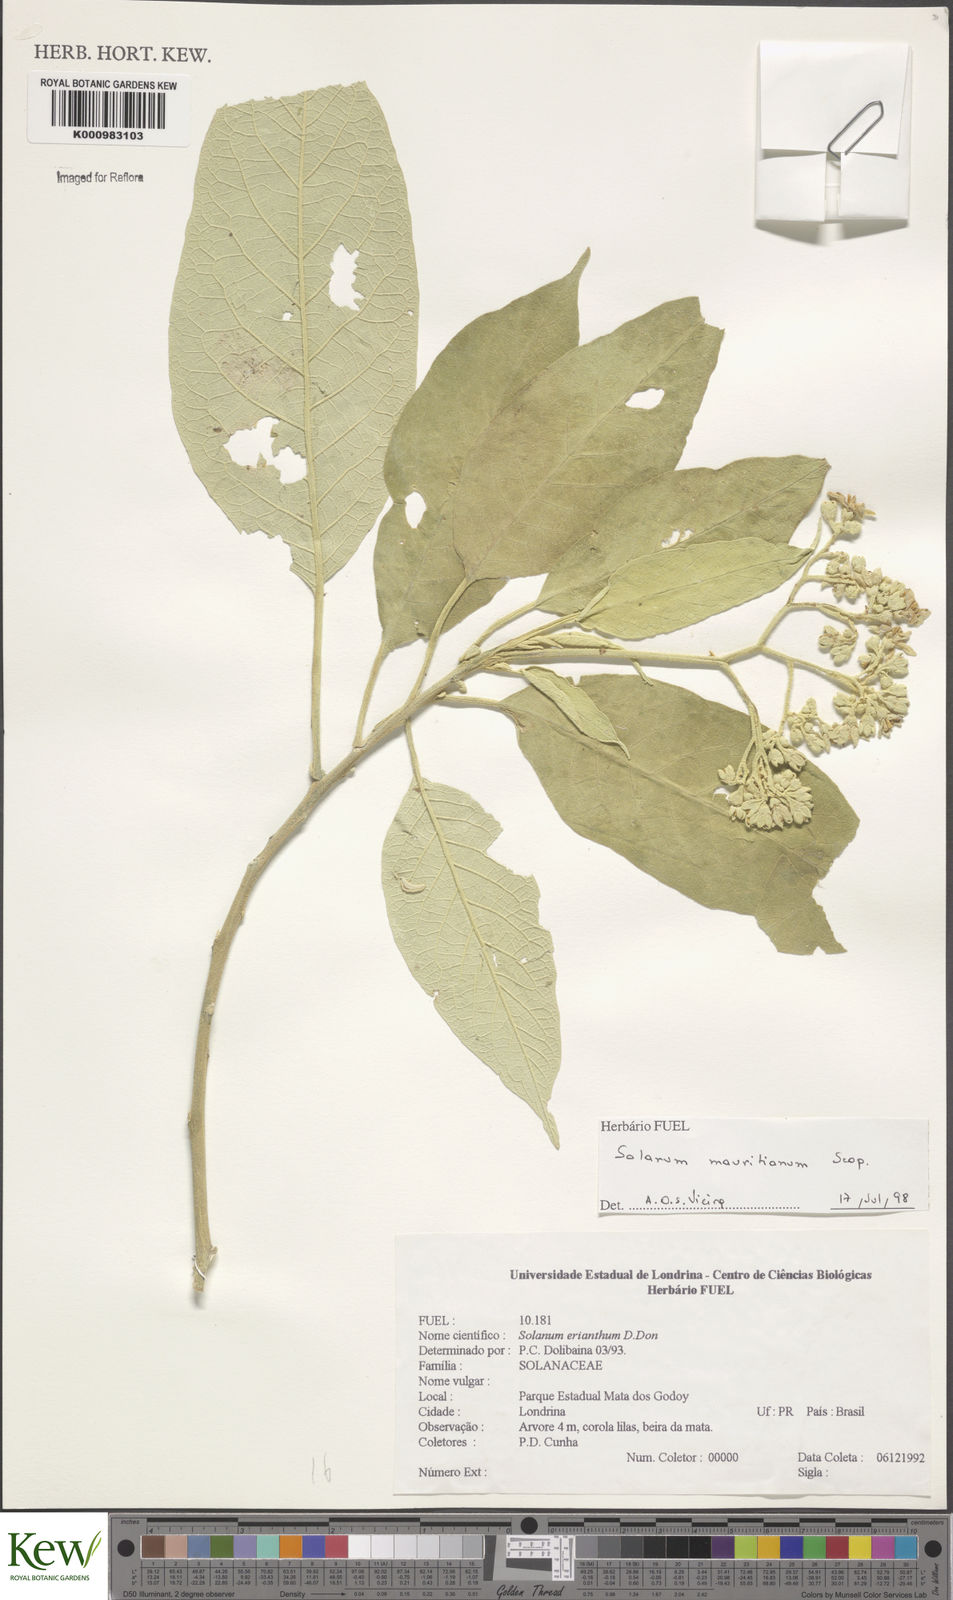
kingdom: Plantae
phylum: Tracheophyta
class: Magnoliopsida
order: Solanales
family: Solanaceae
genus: Solanum
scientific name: Solanum mauritianum
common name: Earleaf nightshade
